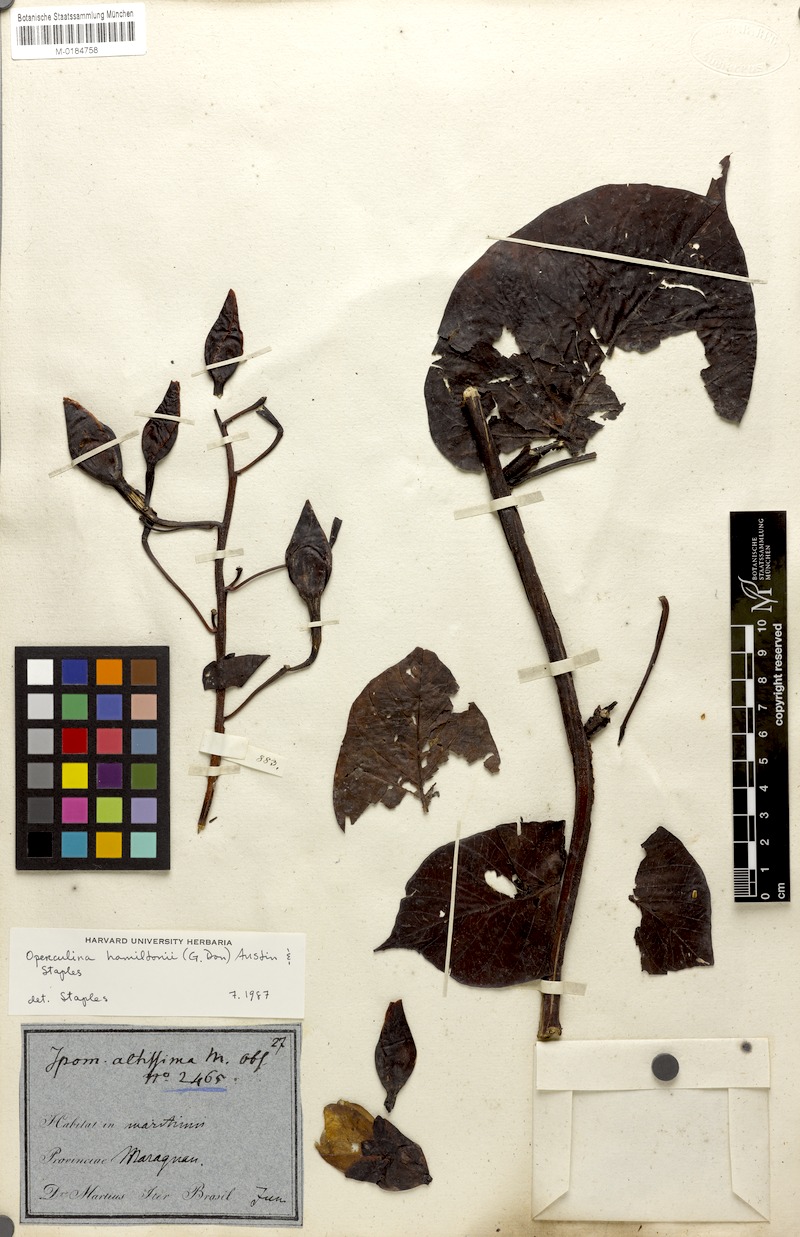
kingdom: Plantae
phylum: Tracheophyta
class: Magnoliopsida
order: Solanales
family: Convolvulaceae
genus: Operculina
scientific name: Operculina hamiltonii
